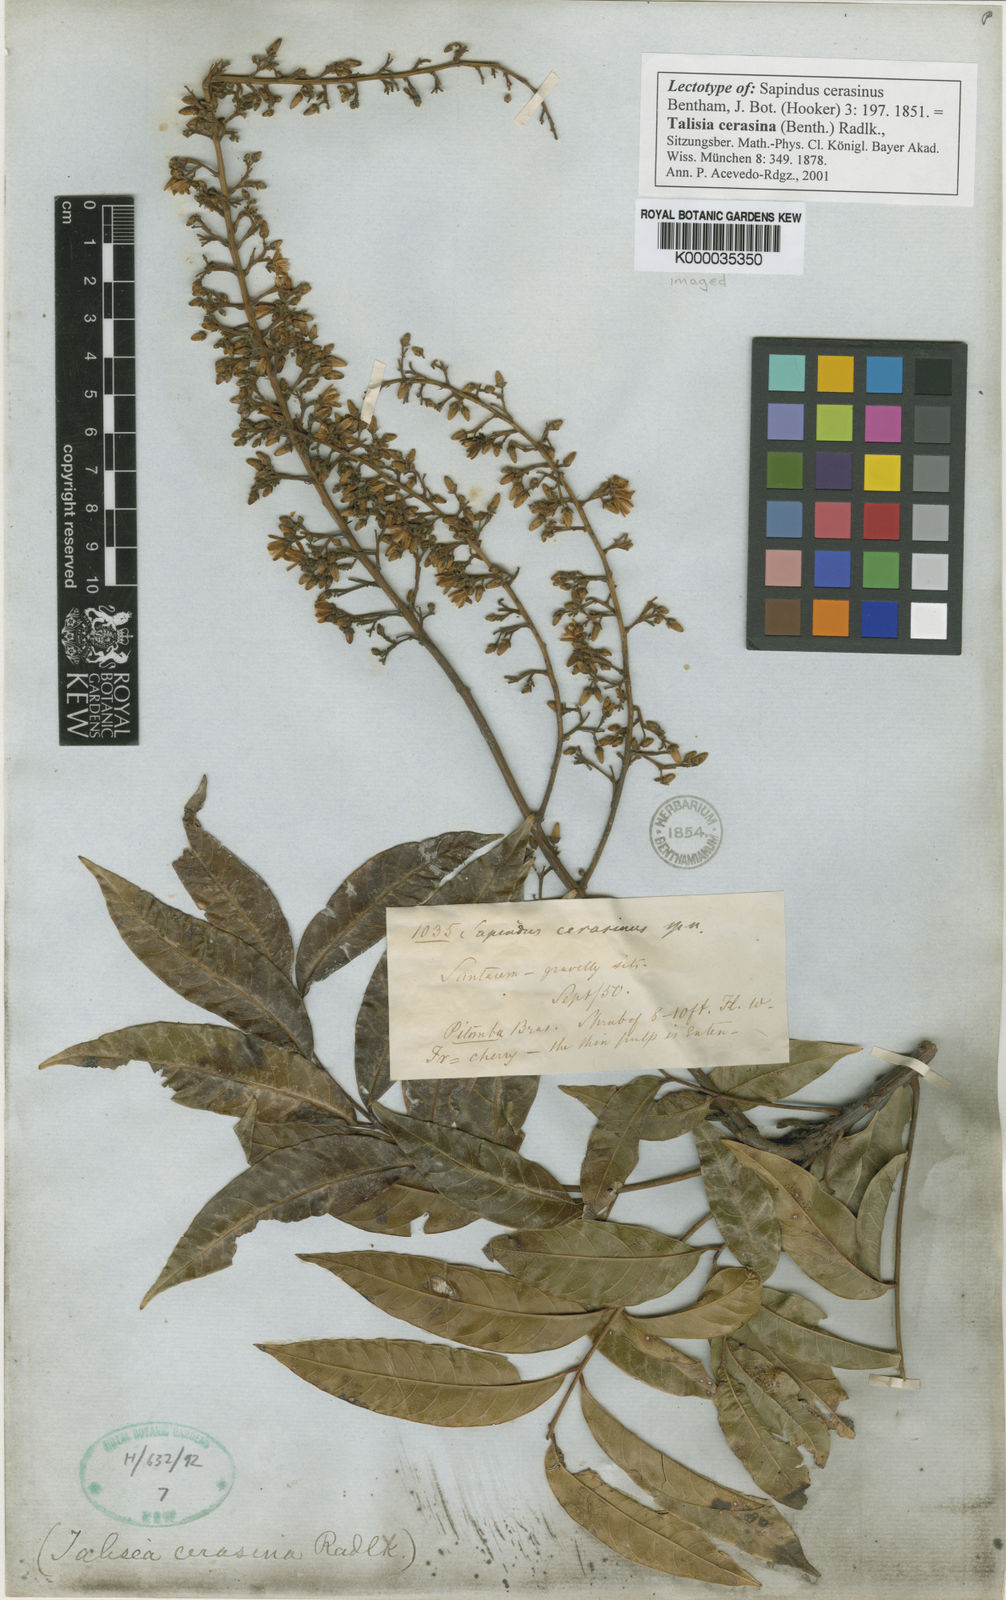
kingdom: Plantae
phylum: Tracheophyta
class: Magnoliopsida
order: Sapindales
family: Sapindaceae
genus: Talisia
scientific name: Talisia cerasina
